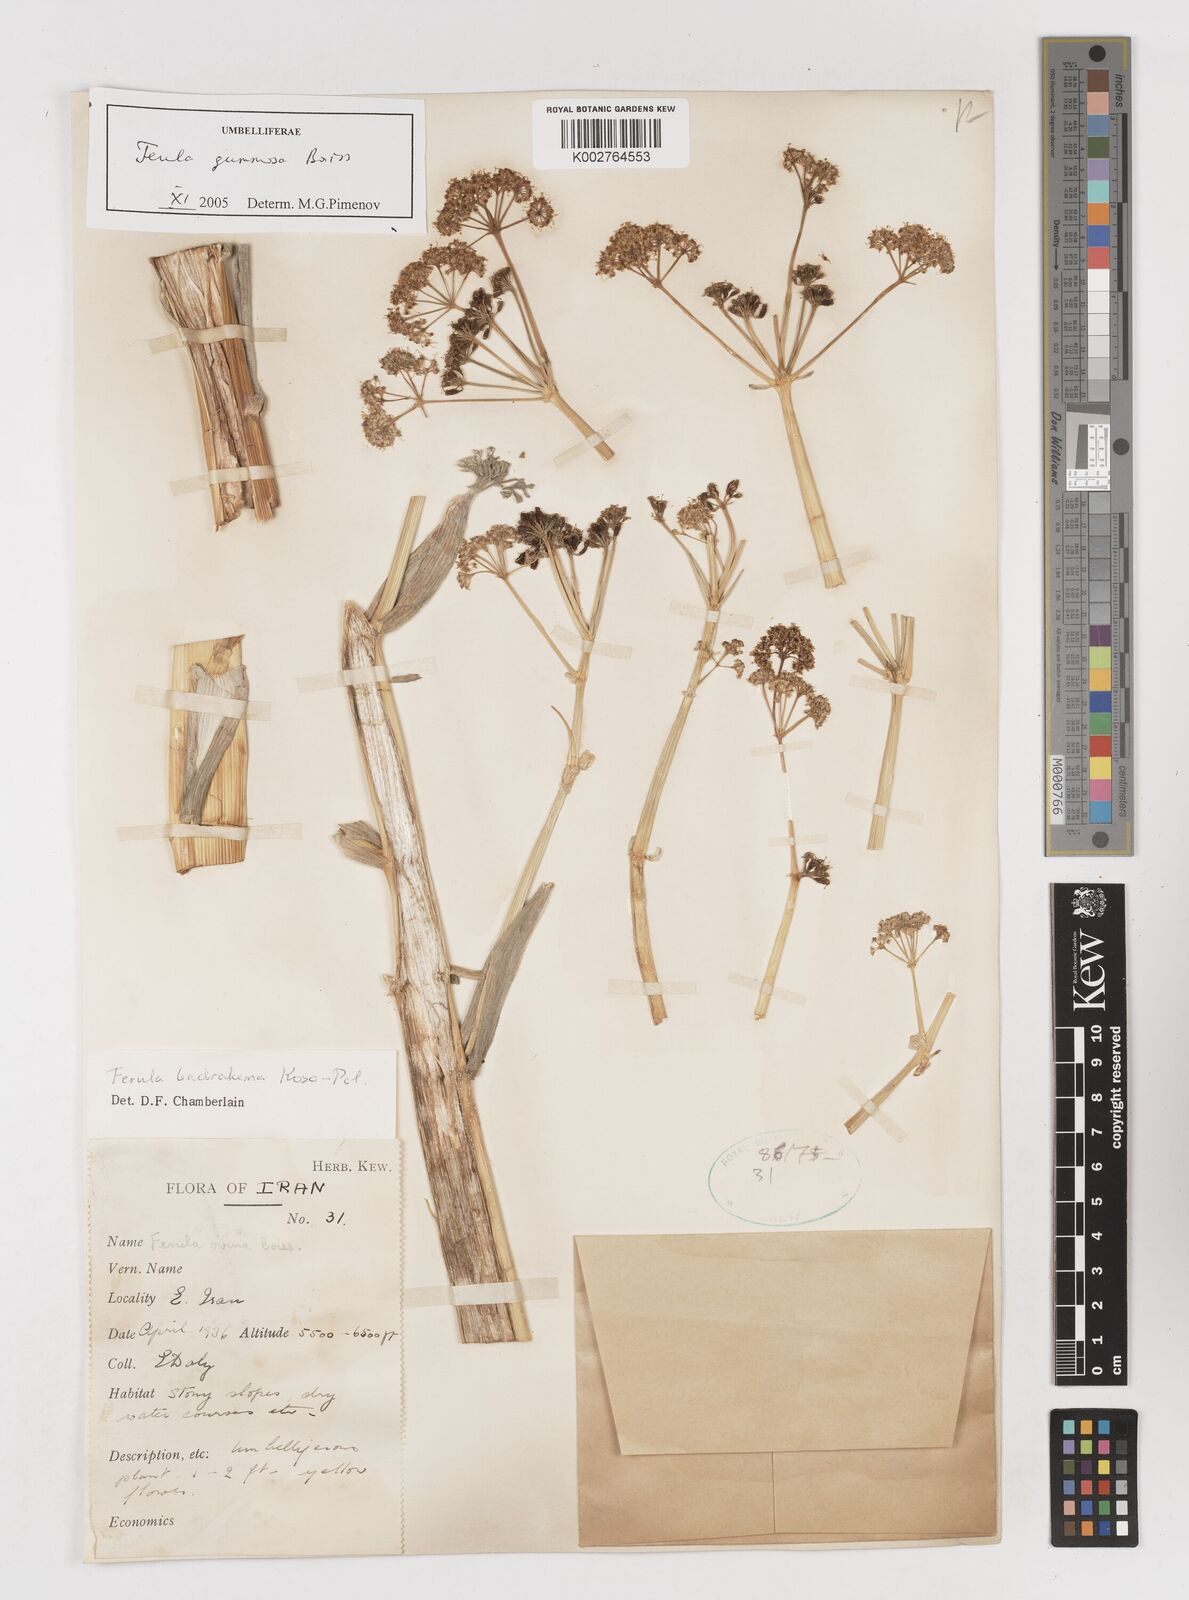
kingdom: Plantae
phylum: Tracheophyta
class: Magnoliopsida
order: Apiales
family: Apiaceae
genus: Ferula
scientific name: Ferula gummosa
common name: Galbanum
